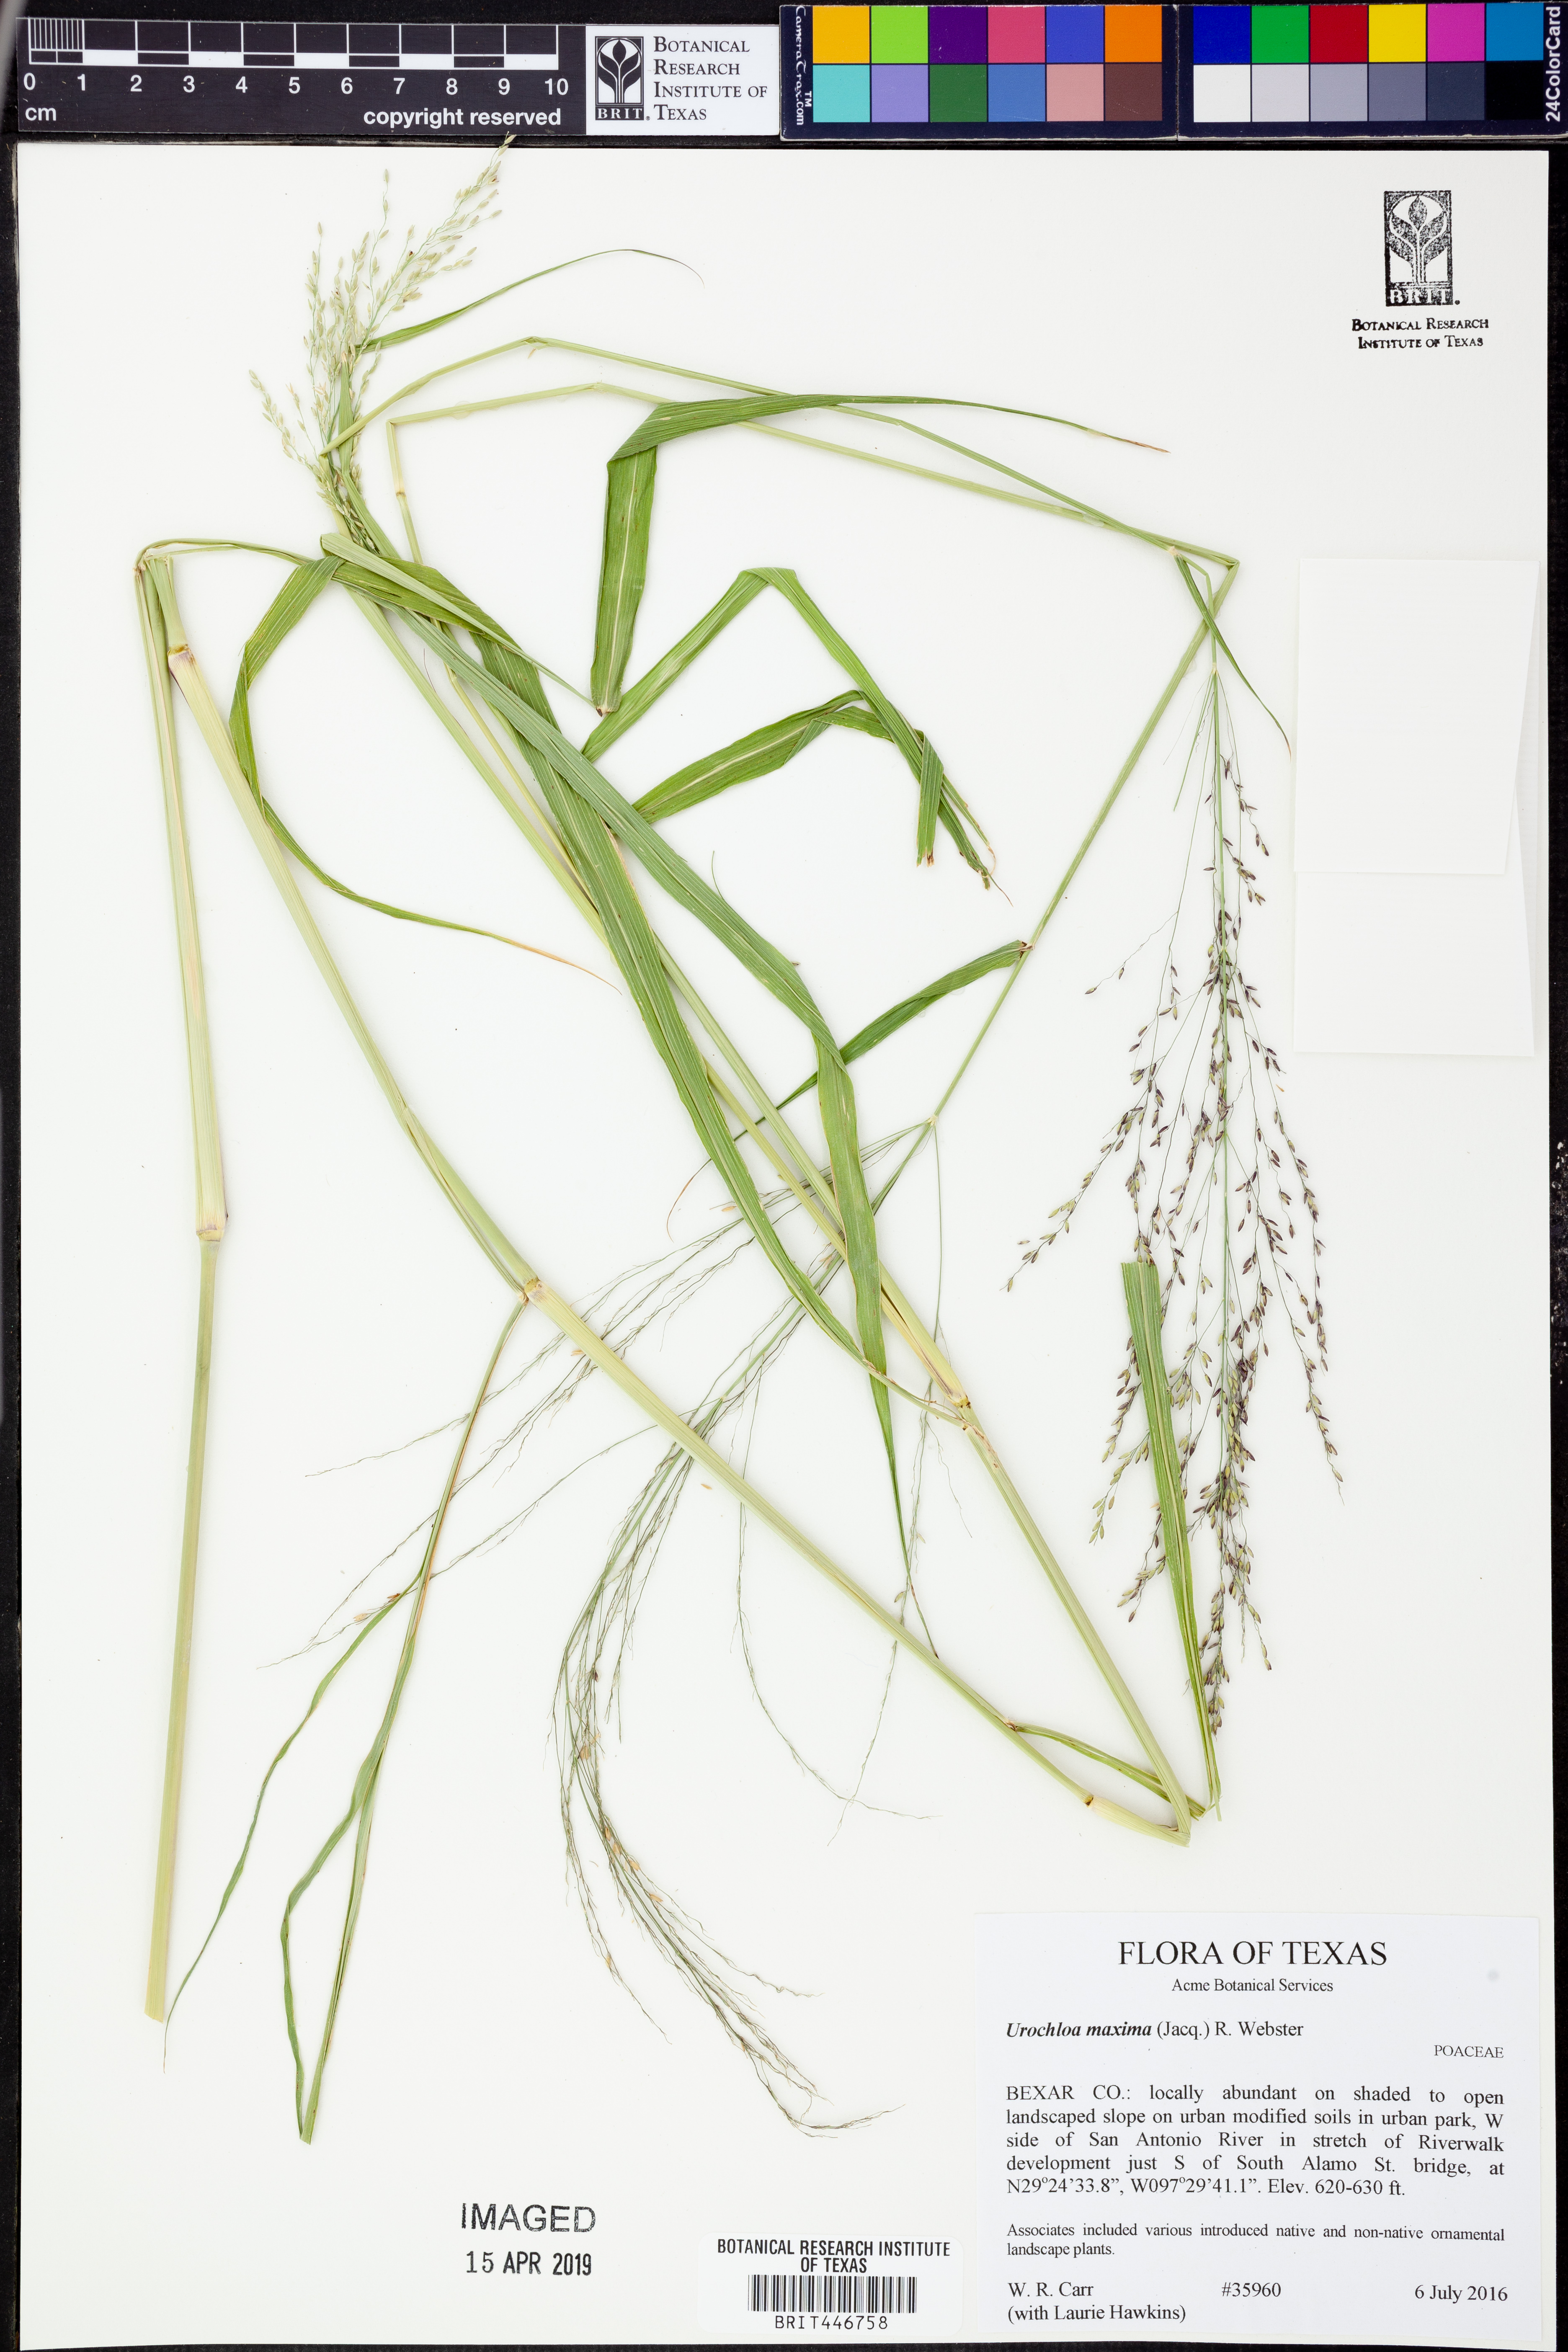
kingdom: Plantae
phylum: Tracheophyta
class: Liliopsida
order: Poales
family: Poaceae
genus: Megathyrsus
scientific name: Megathyrsus maximus
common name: Guineagrass
